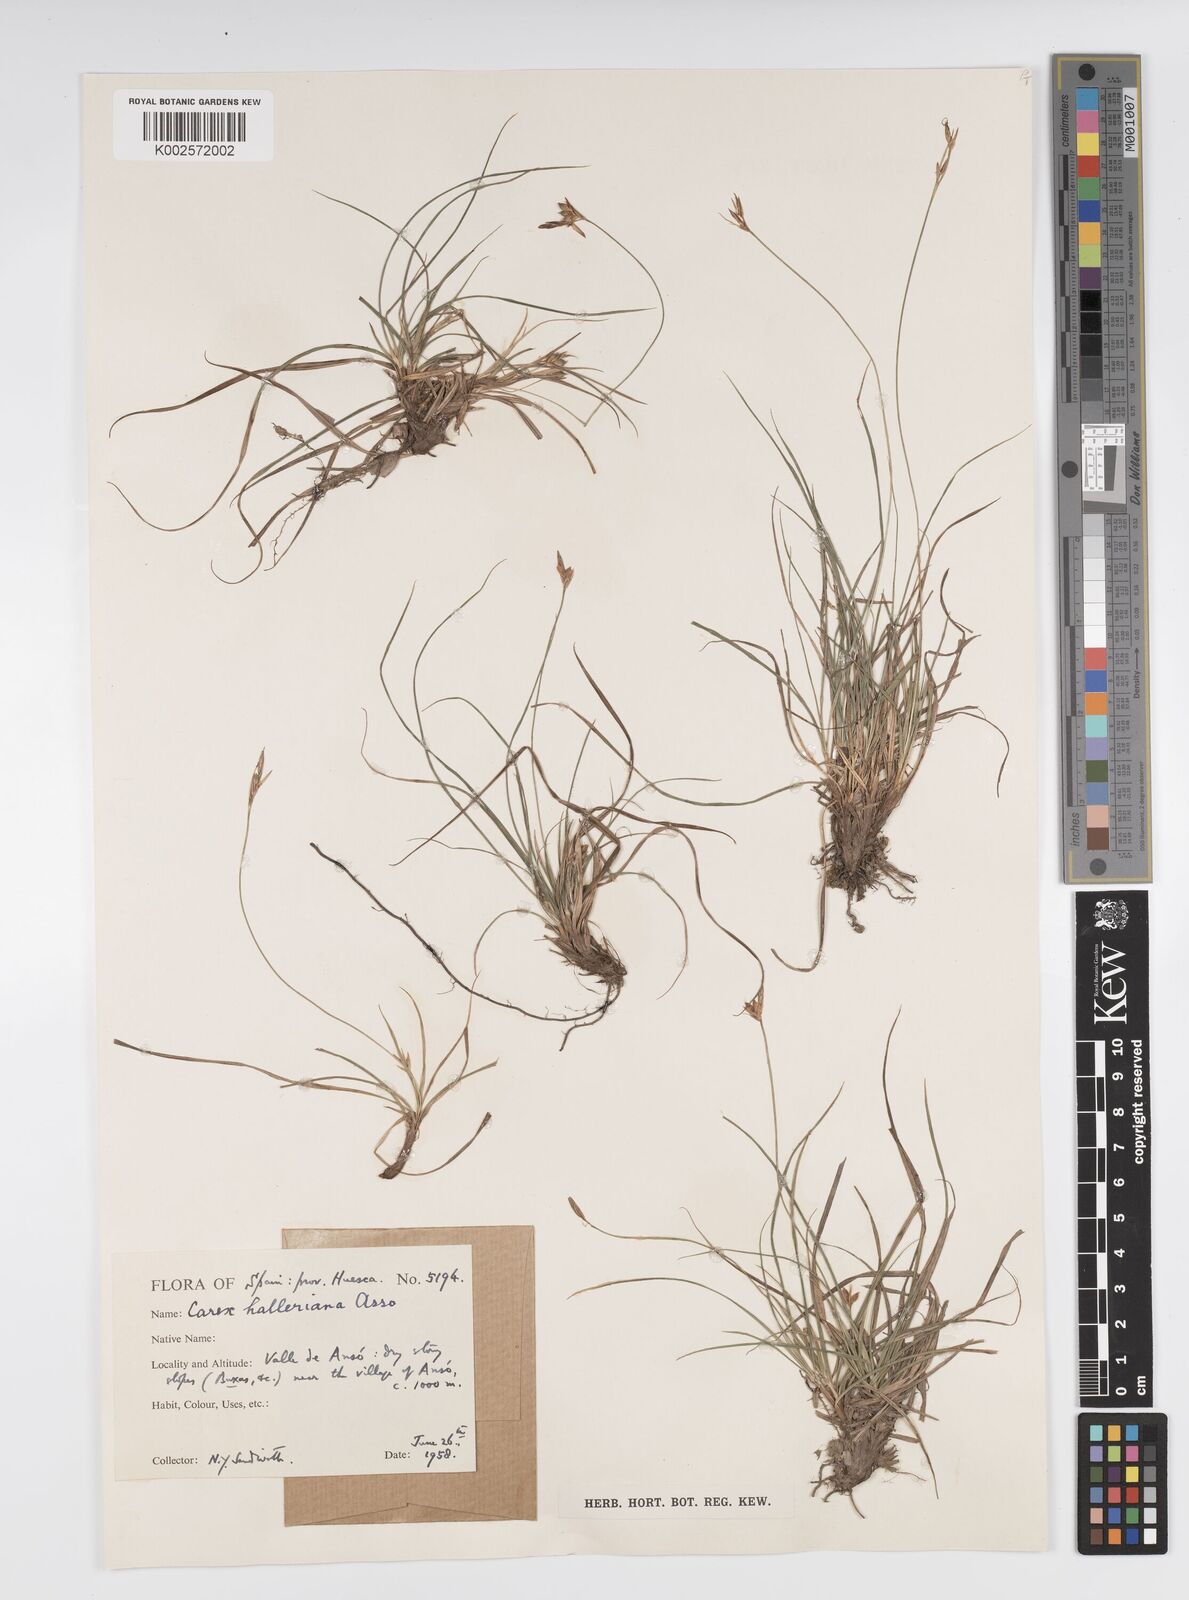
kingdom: Plantae
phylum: Tracheophyta
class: Liliopsida
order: Poales
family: Cyperaceae
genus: Carex
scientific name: Carex halleriana
